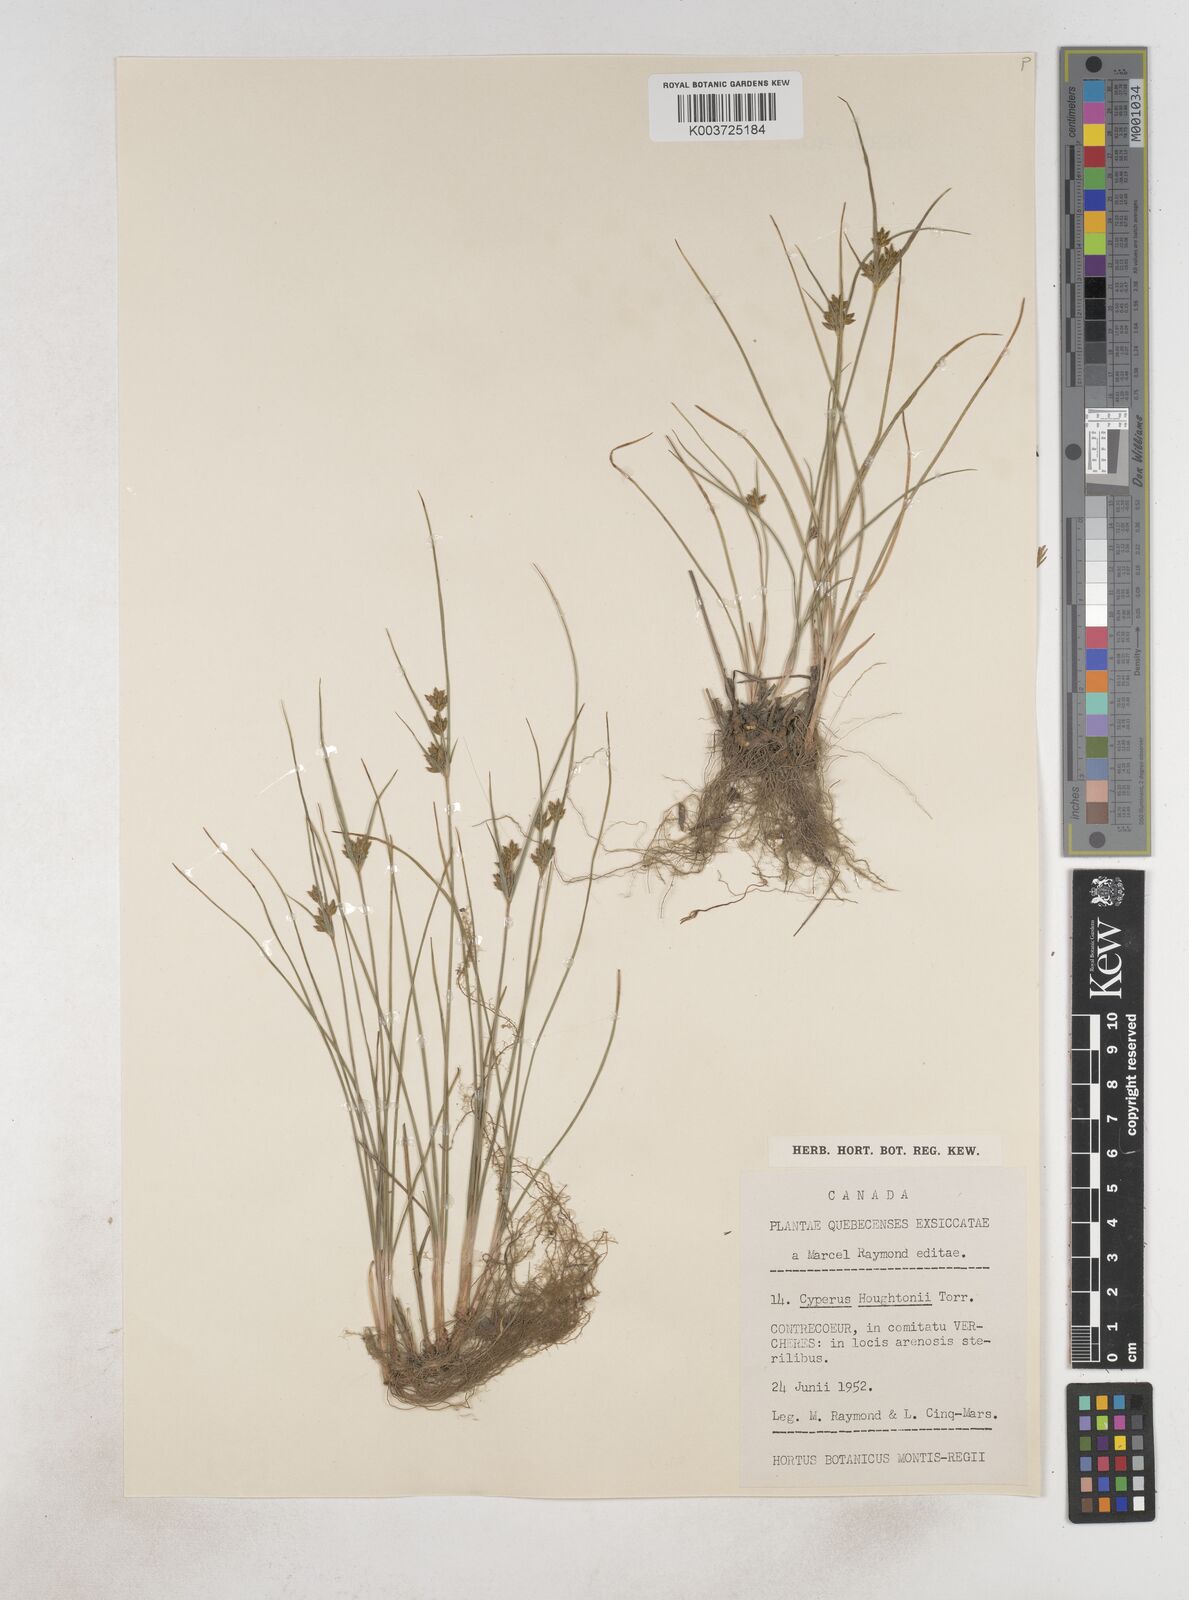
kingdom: Plantae
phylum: Tracheophyta
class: Liliopsida
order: Poales
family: Cyperaceae
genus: Cyperus
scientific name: Cyperus retrorsus
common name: Pinebarren flat sedge
